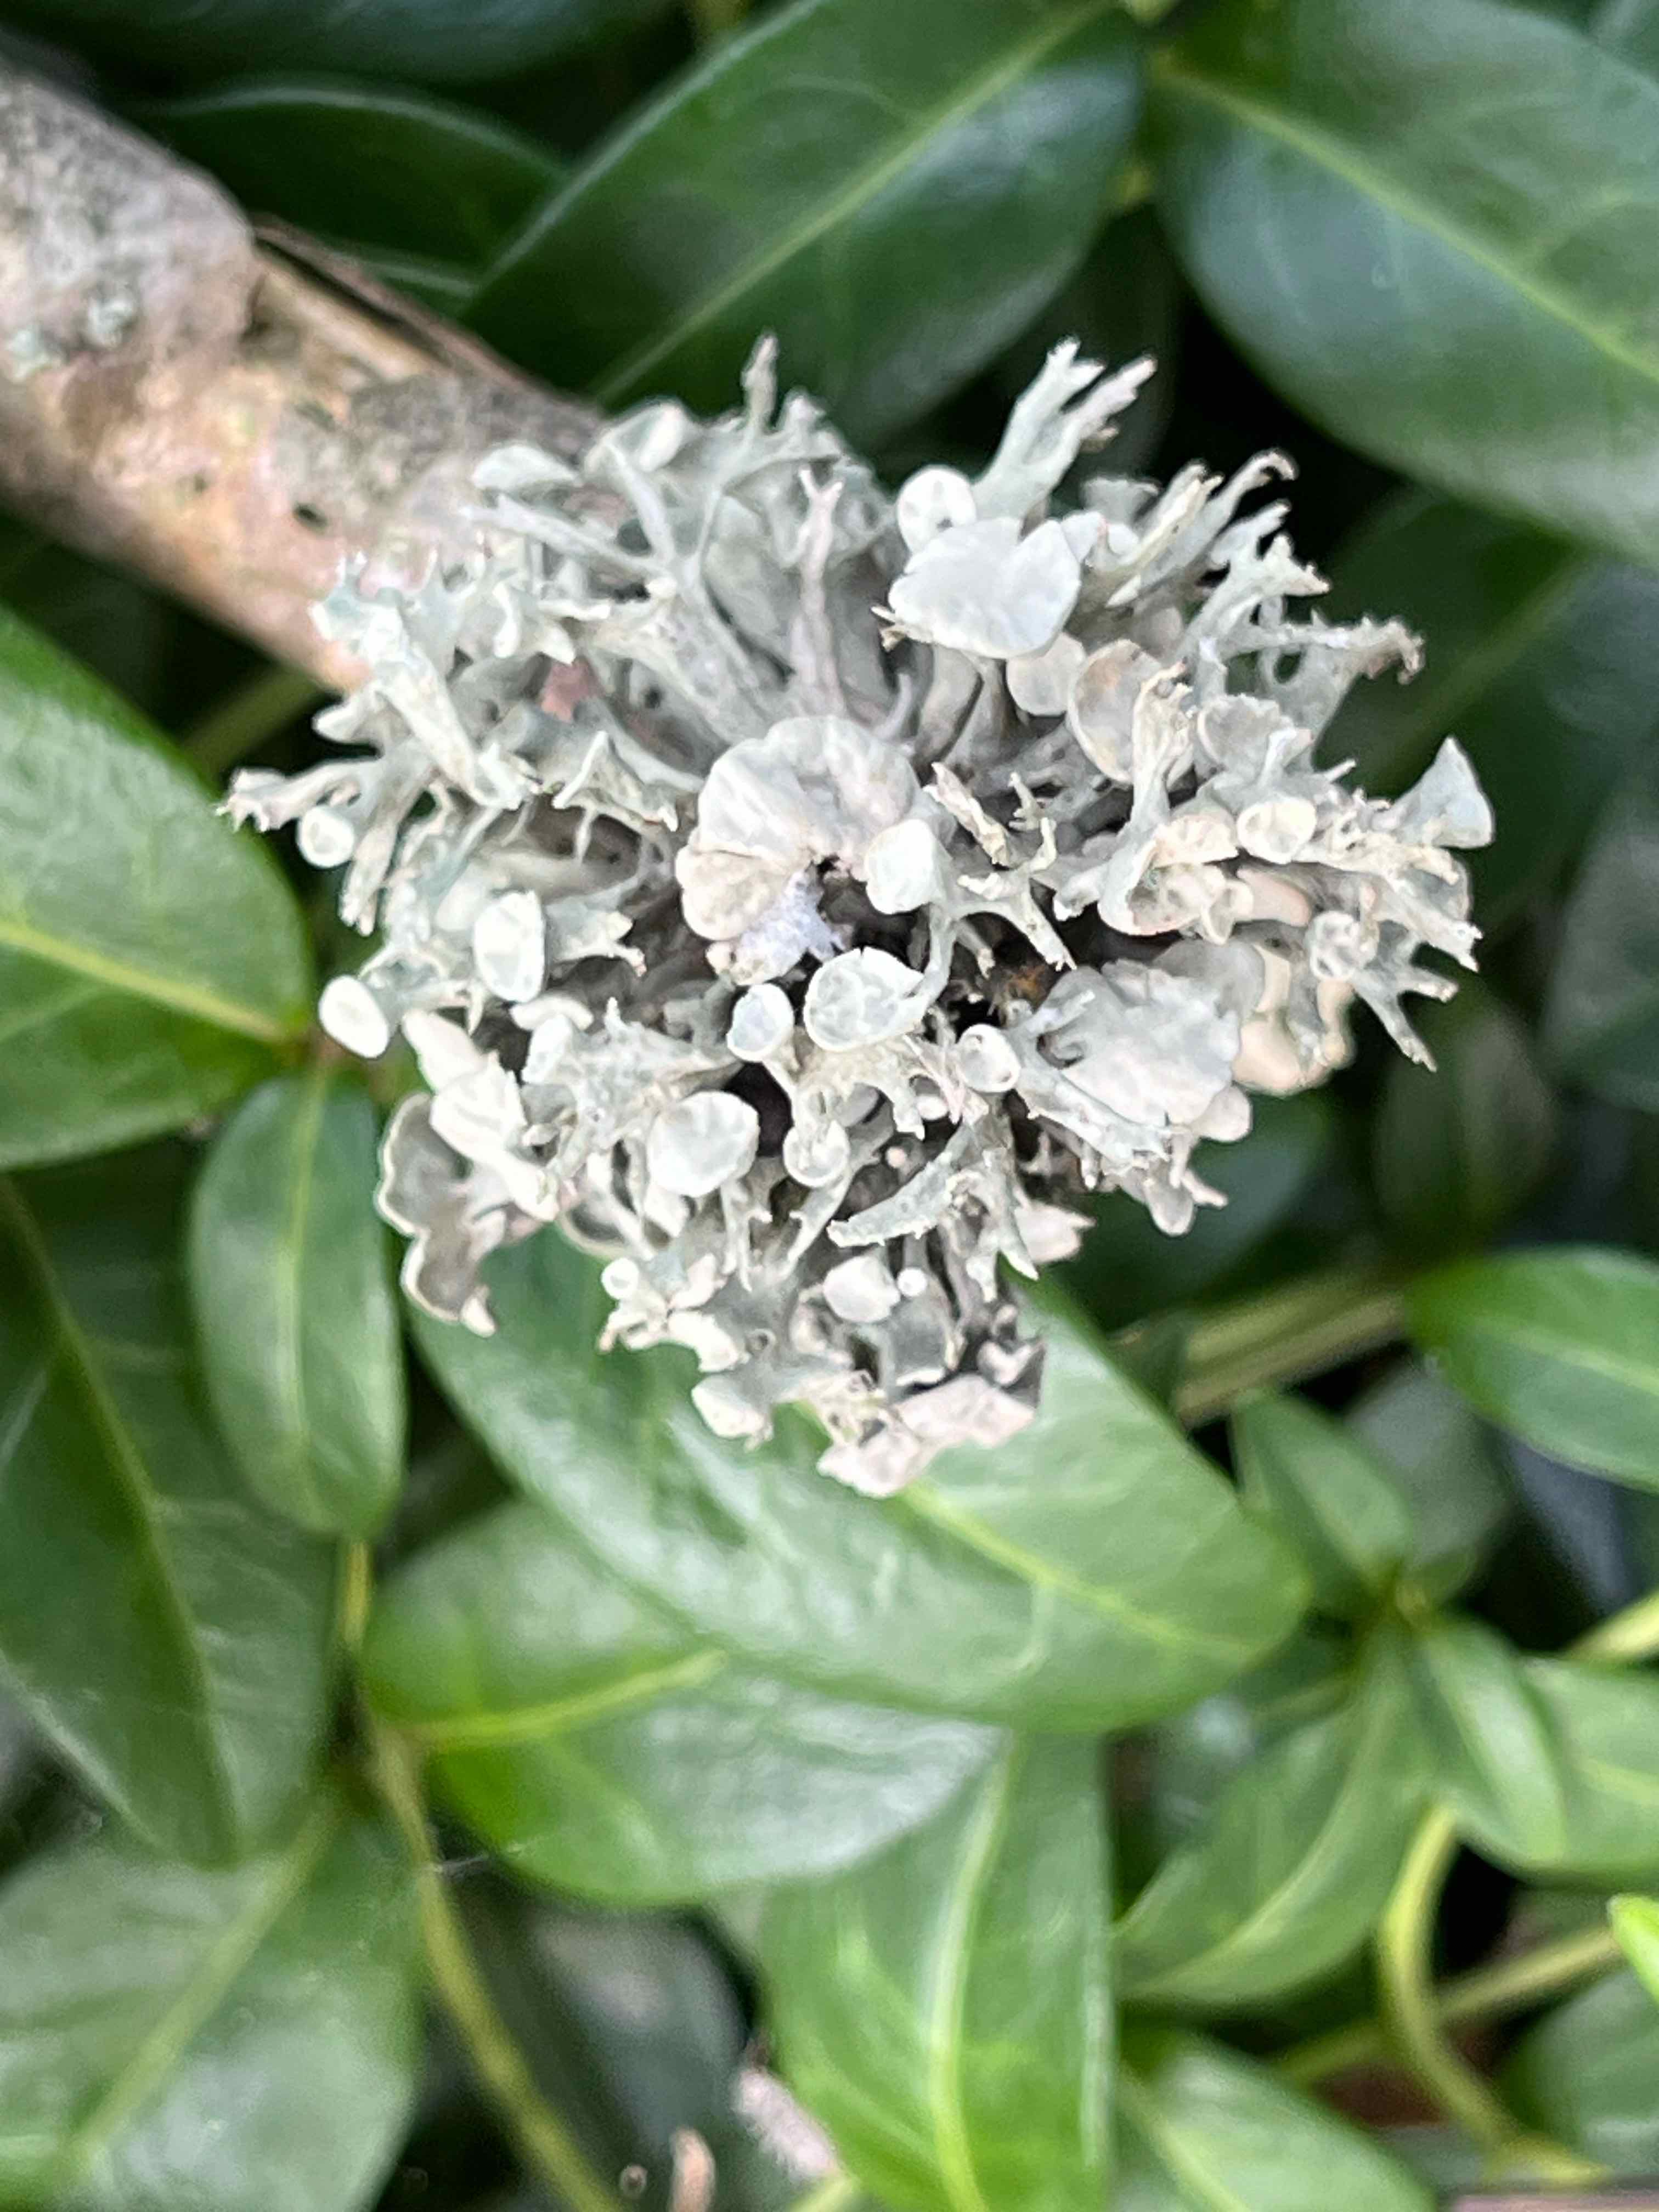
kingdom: Fungi
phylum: Ascomycota
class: Lecanoromycetes
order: Lecanorales
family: Ramalinaceae
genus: Ramalina
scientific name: Ramalina fastigiata
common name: tue-grenlav
